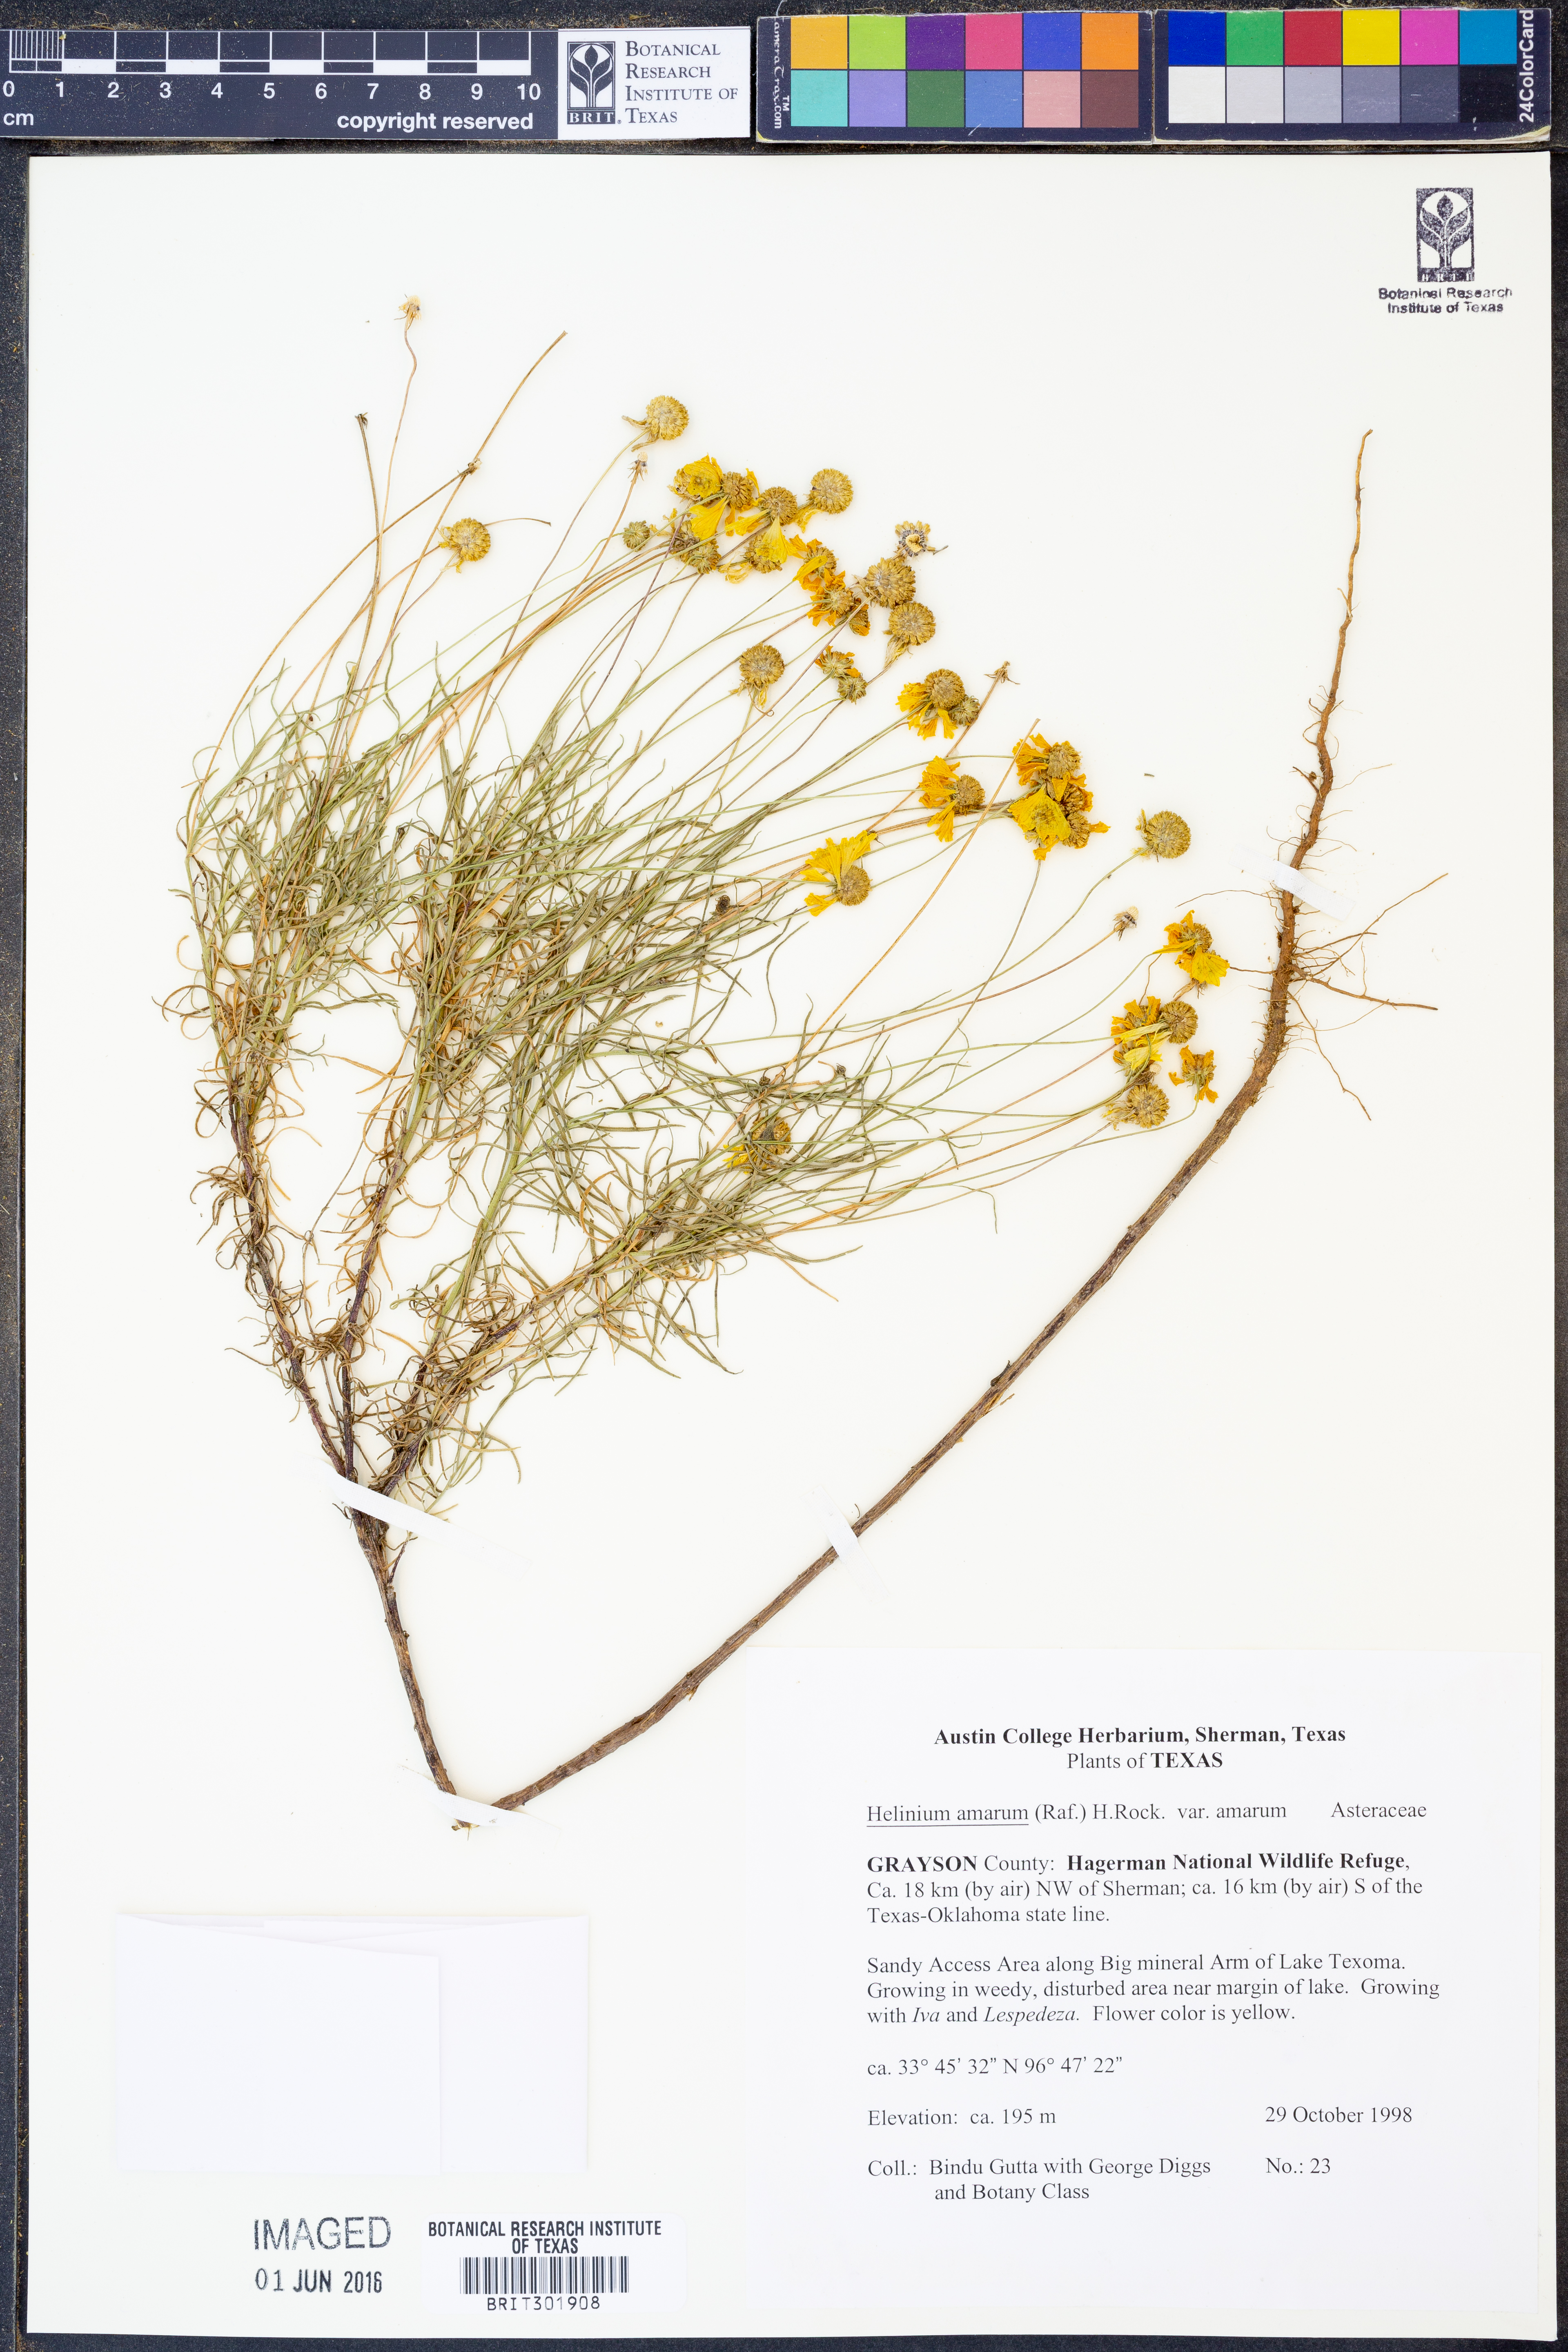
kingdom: Plantae
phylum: Tracheophyta
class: Magnoliopsida
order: Asterales
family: Asteraceae
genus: Helenium
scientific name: Helenium amarum
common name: Bitter sneezeweed
